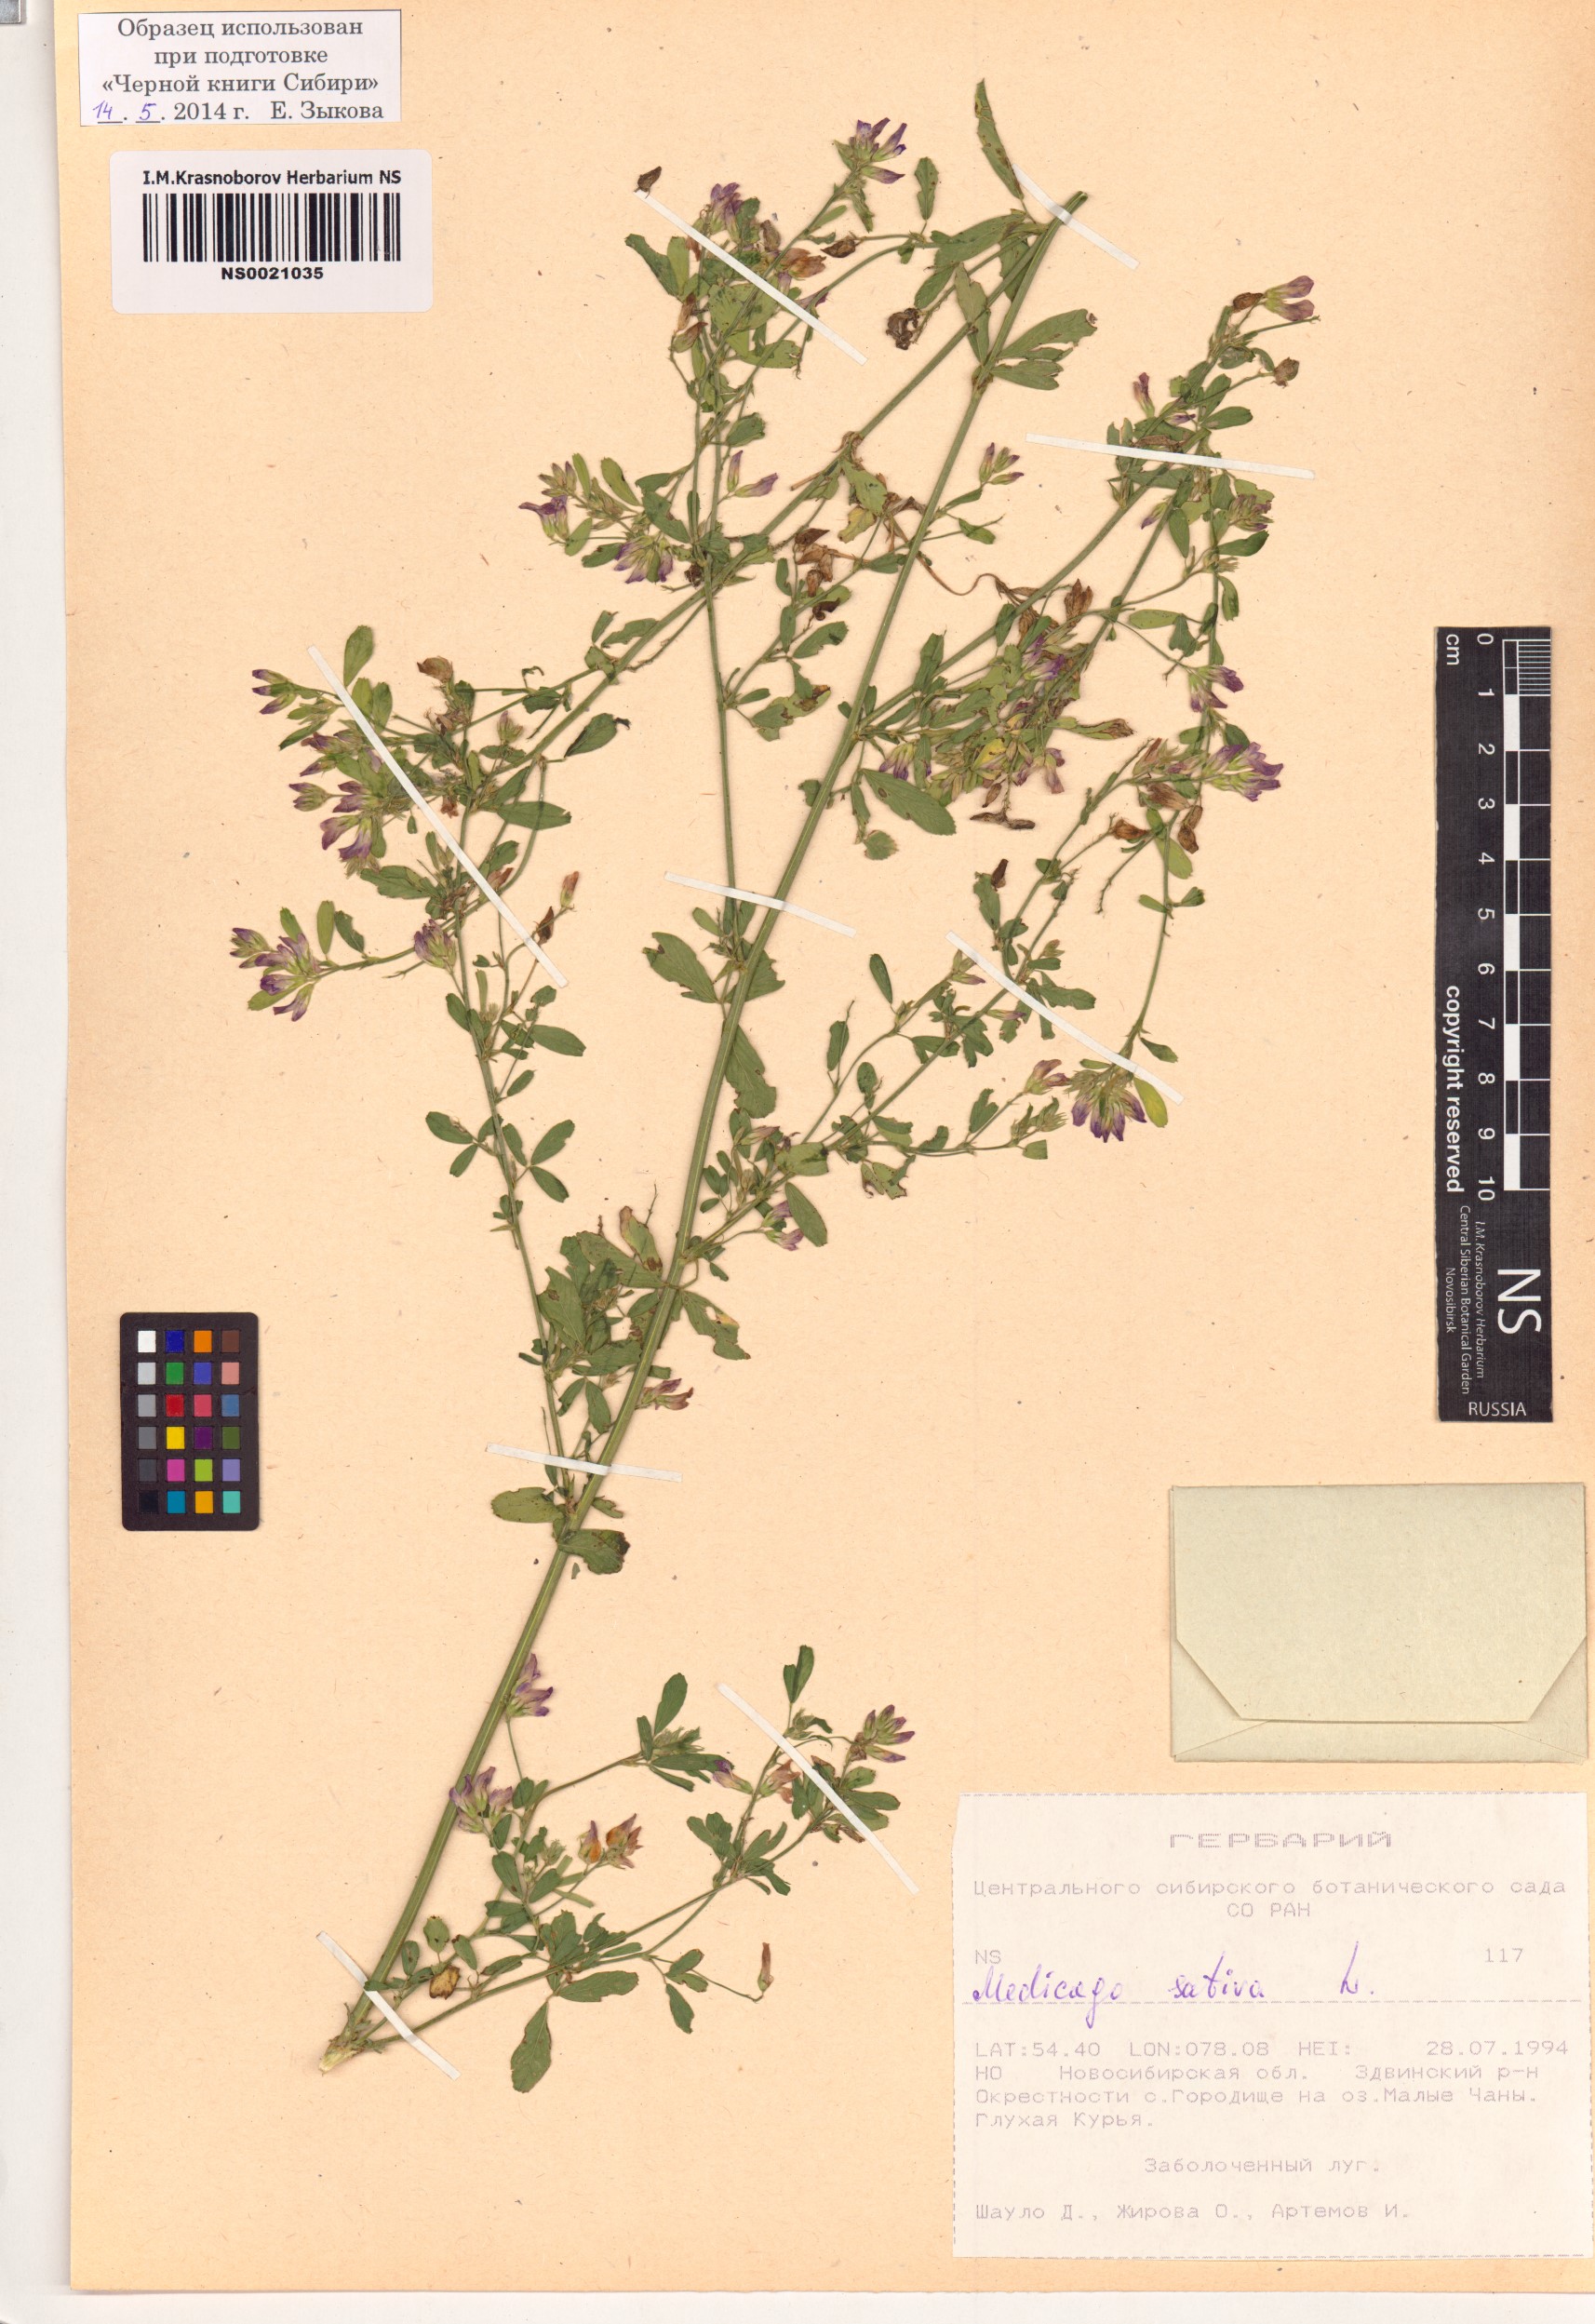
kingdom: Plantae
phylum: Tracheophyta
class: Magnoliopsida
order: Fabales
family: Fabaceae
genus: Medicago
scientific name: Medicago sativa
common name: Alfalfa
